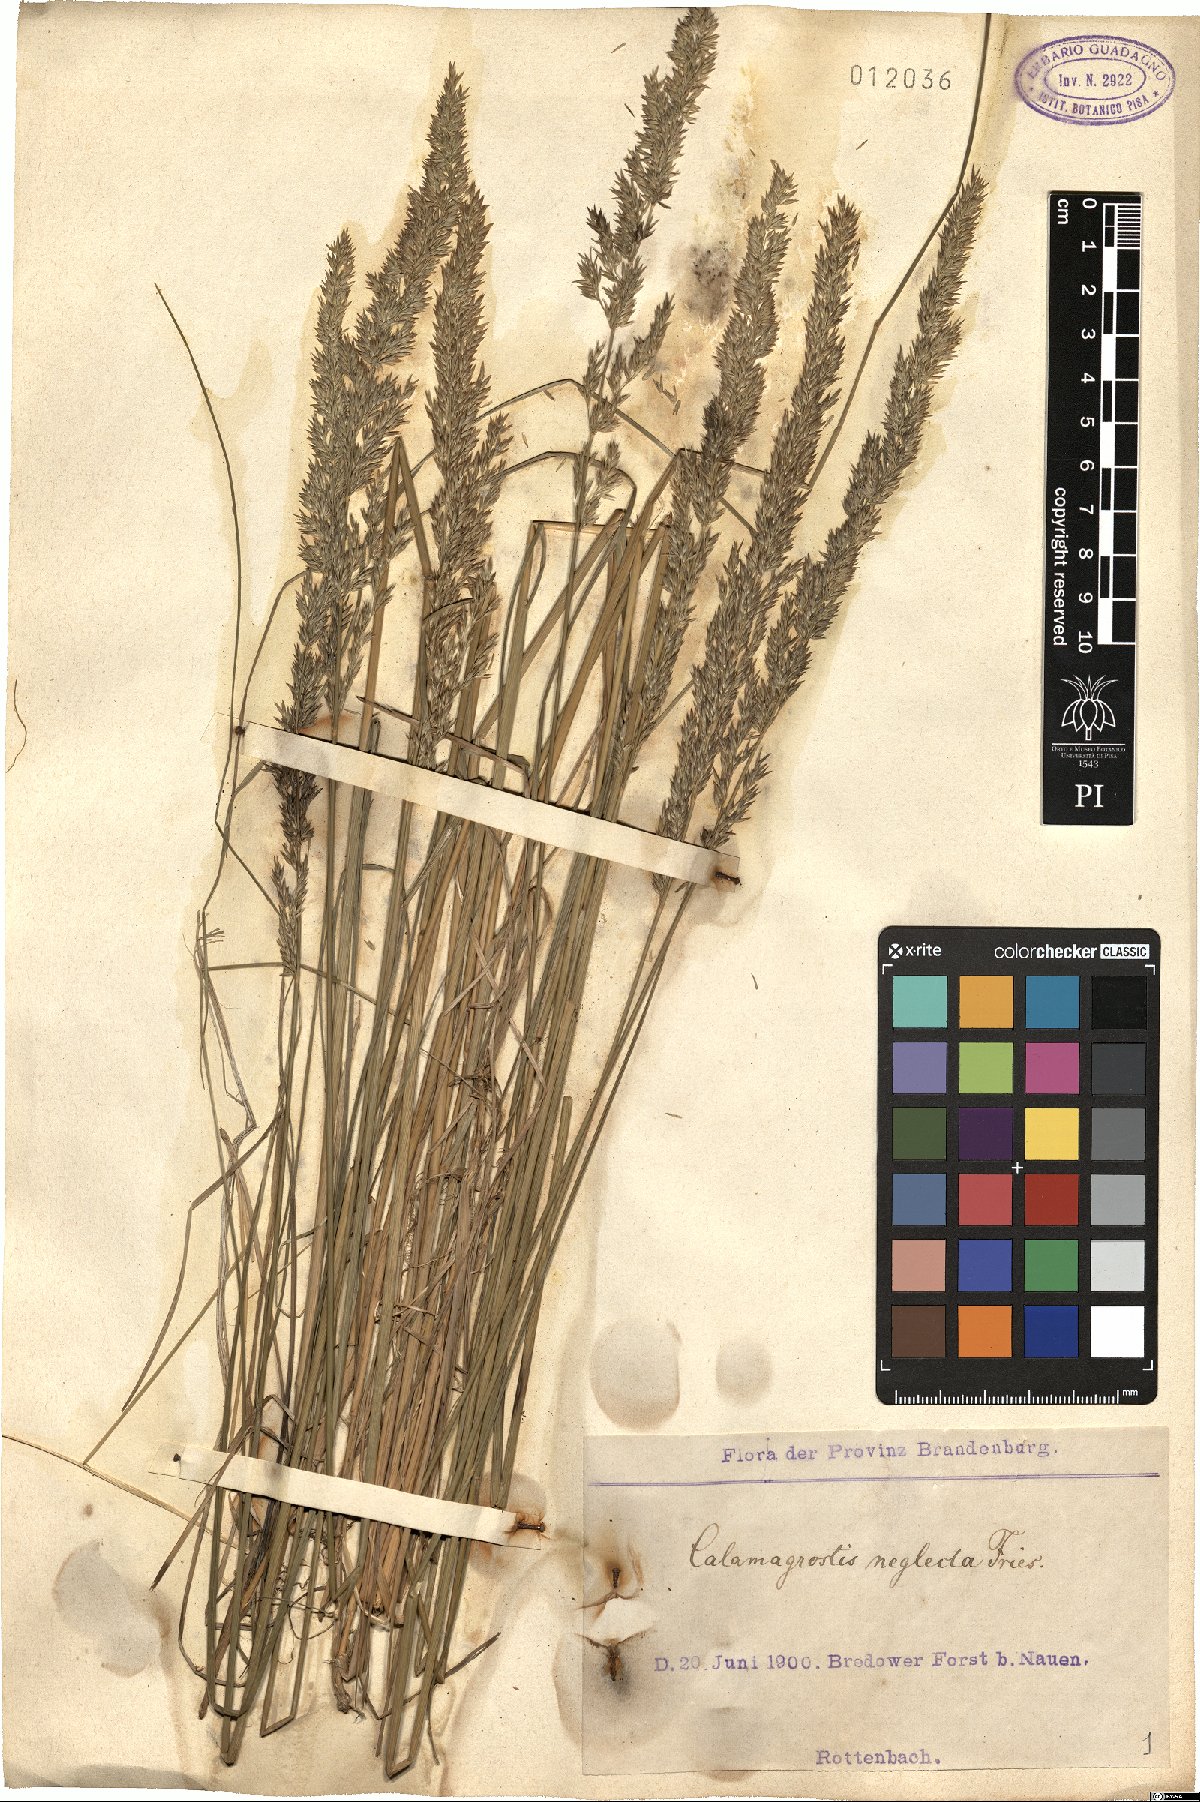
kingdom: Plantae
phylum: Tracheophyta
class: Liliopsida
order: Poales
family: Poaceae
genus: Achnatherum
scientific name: Achnatherum calamagrostis
